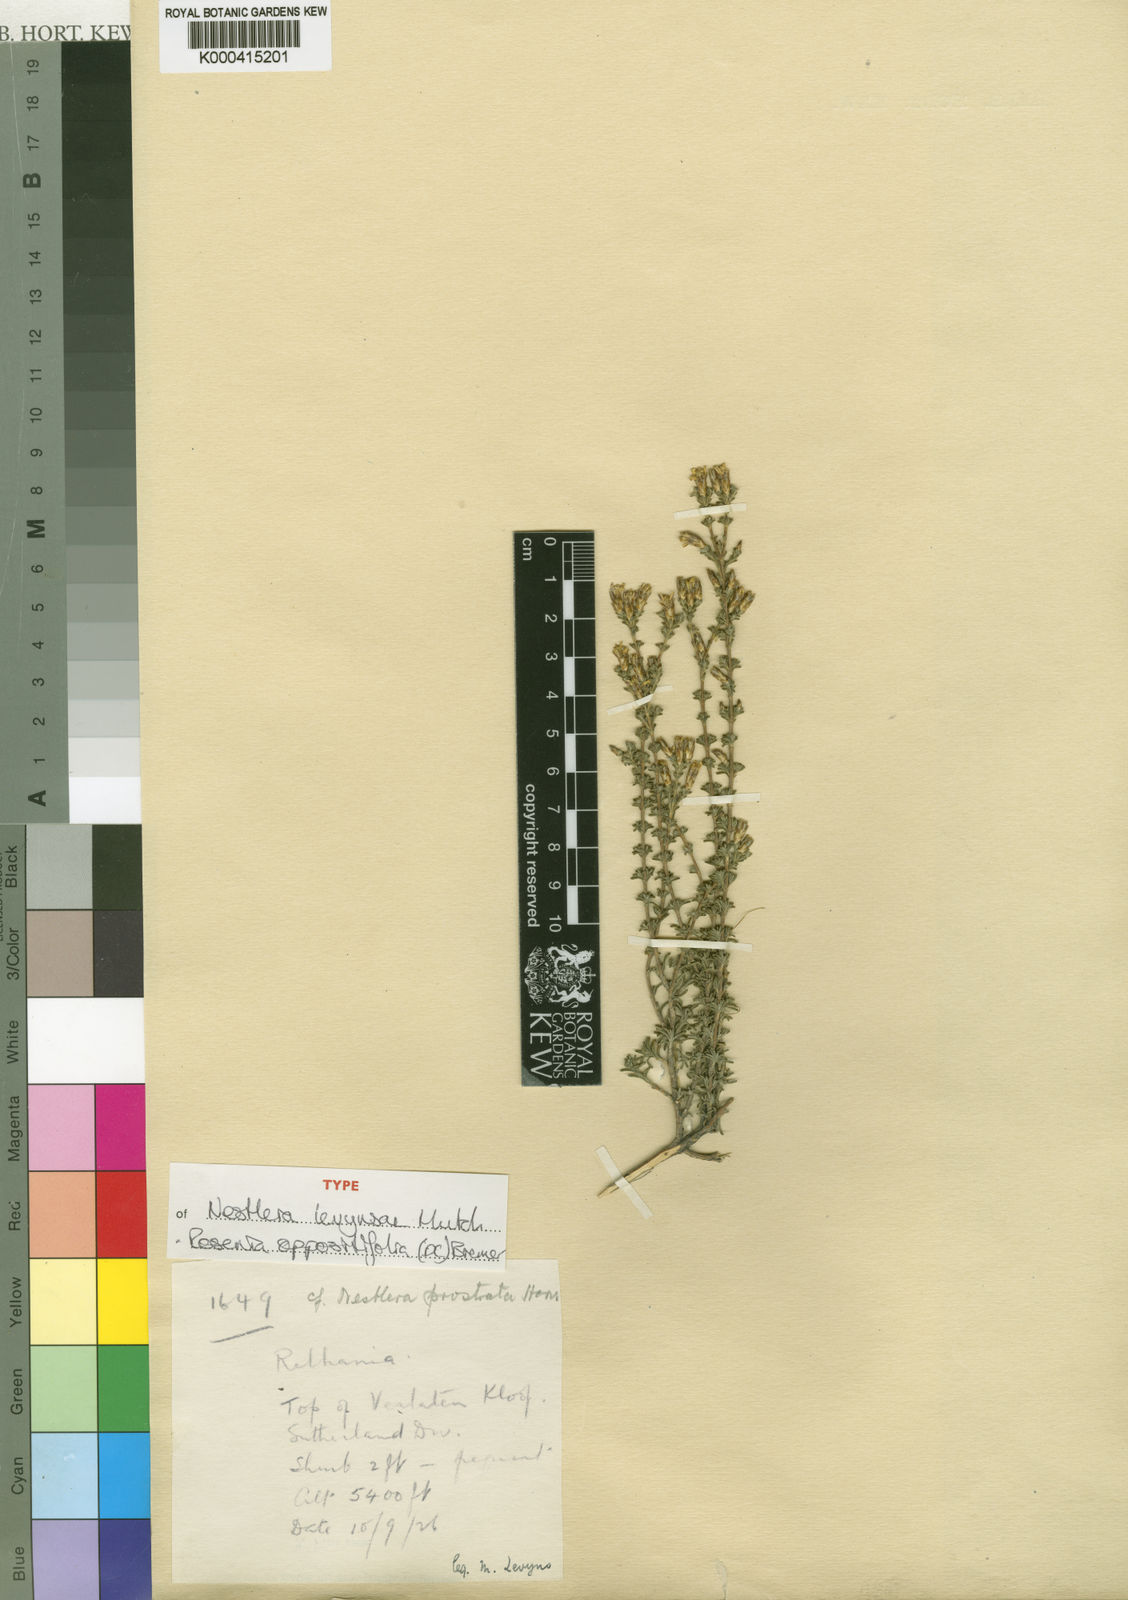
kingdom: Plantae
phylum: Tracheophyta
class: Magnoliopsida
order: Asterales
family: Asteraceae
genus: Oedera
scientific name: Oedera oppositifolia
